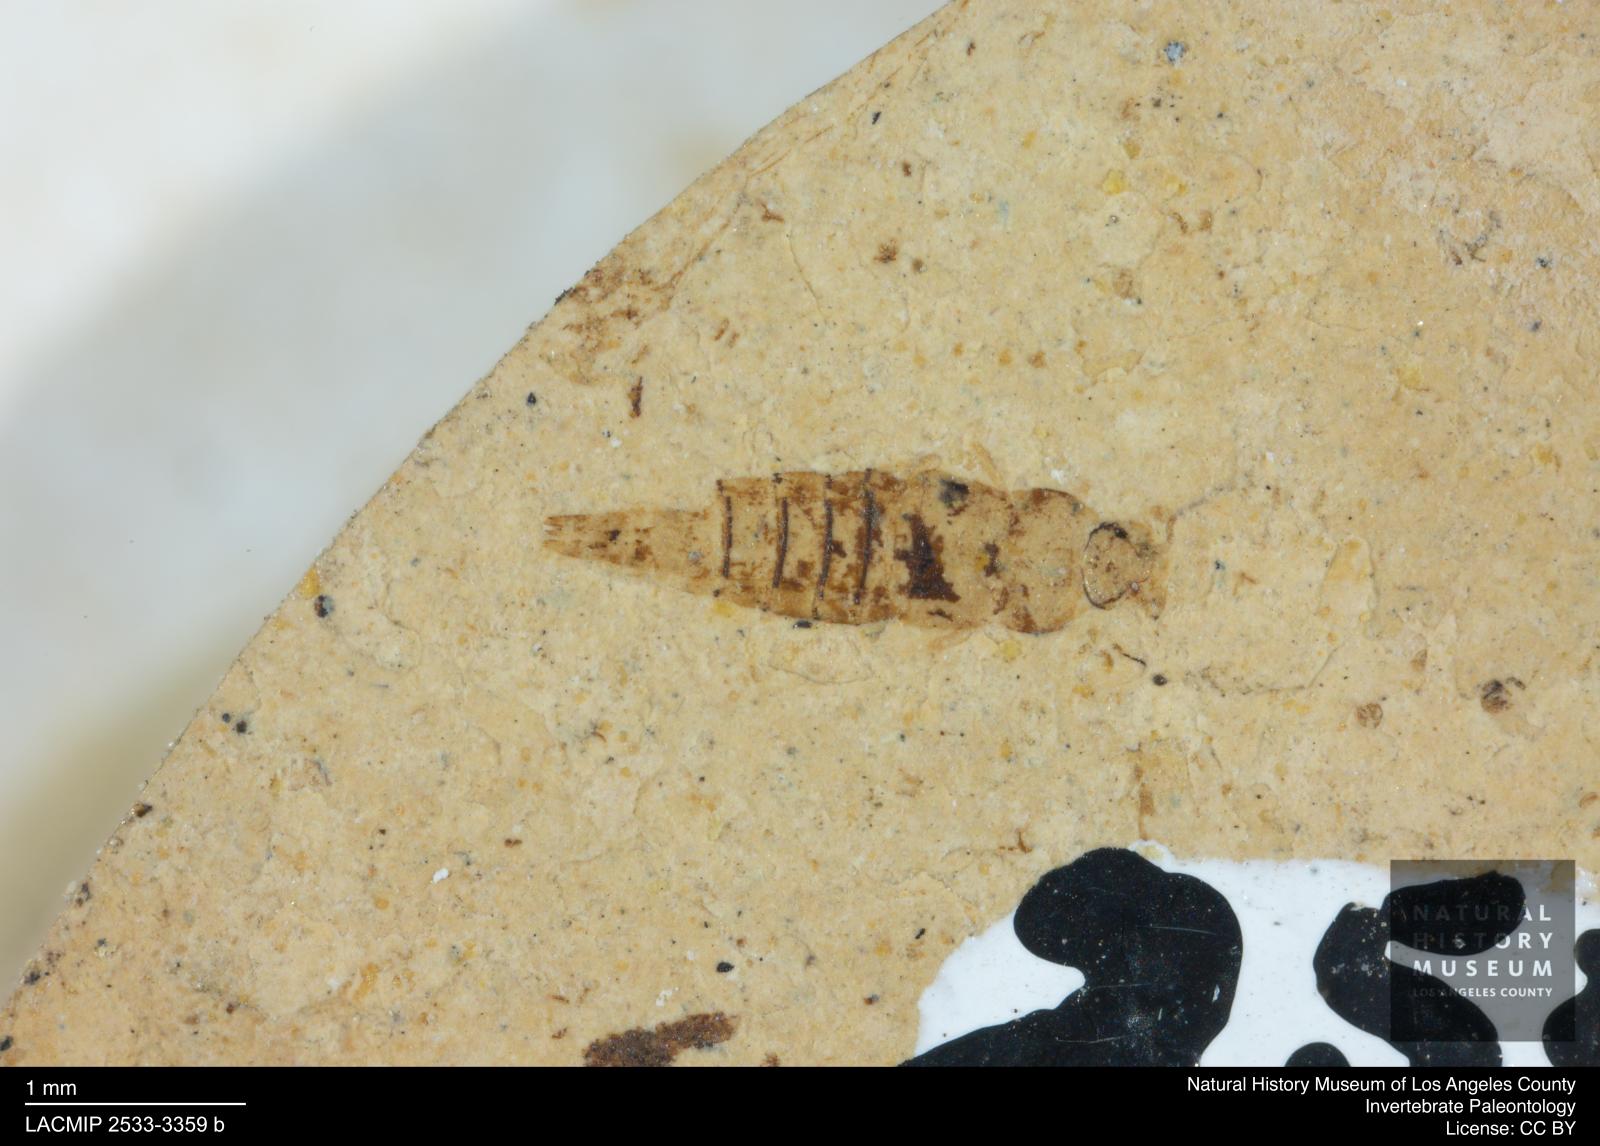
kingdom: Animalia
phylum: Arthropoda
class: Insecta
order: Coleoptera
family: Staphylinidae
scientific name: Staphylinidae
